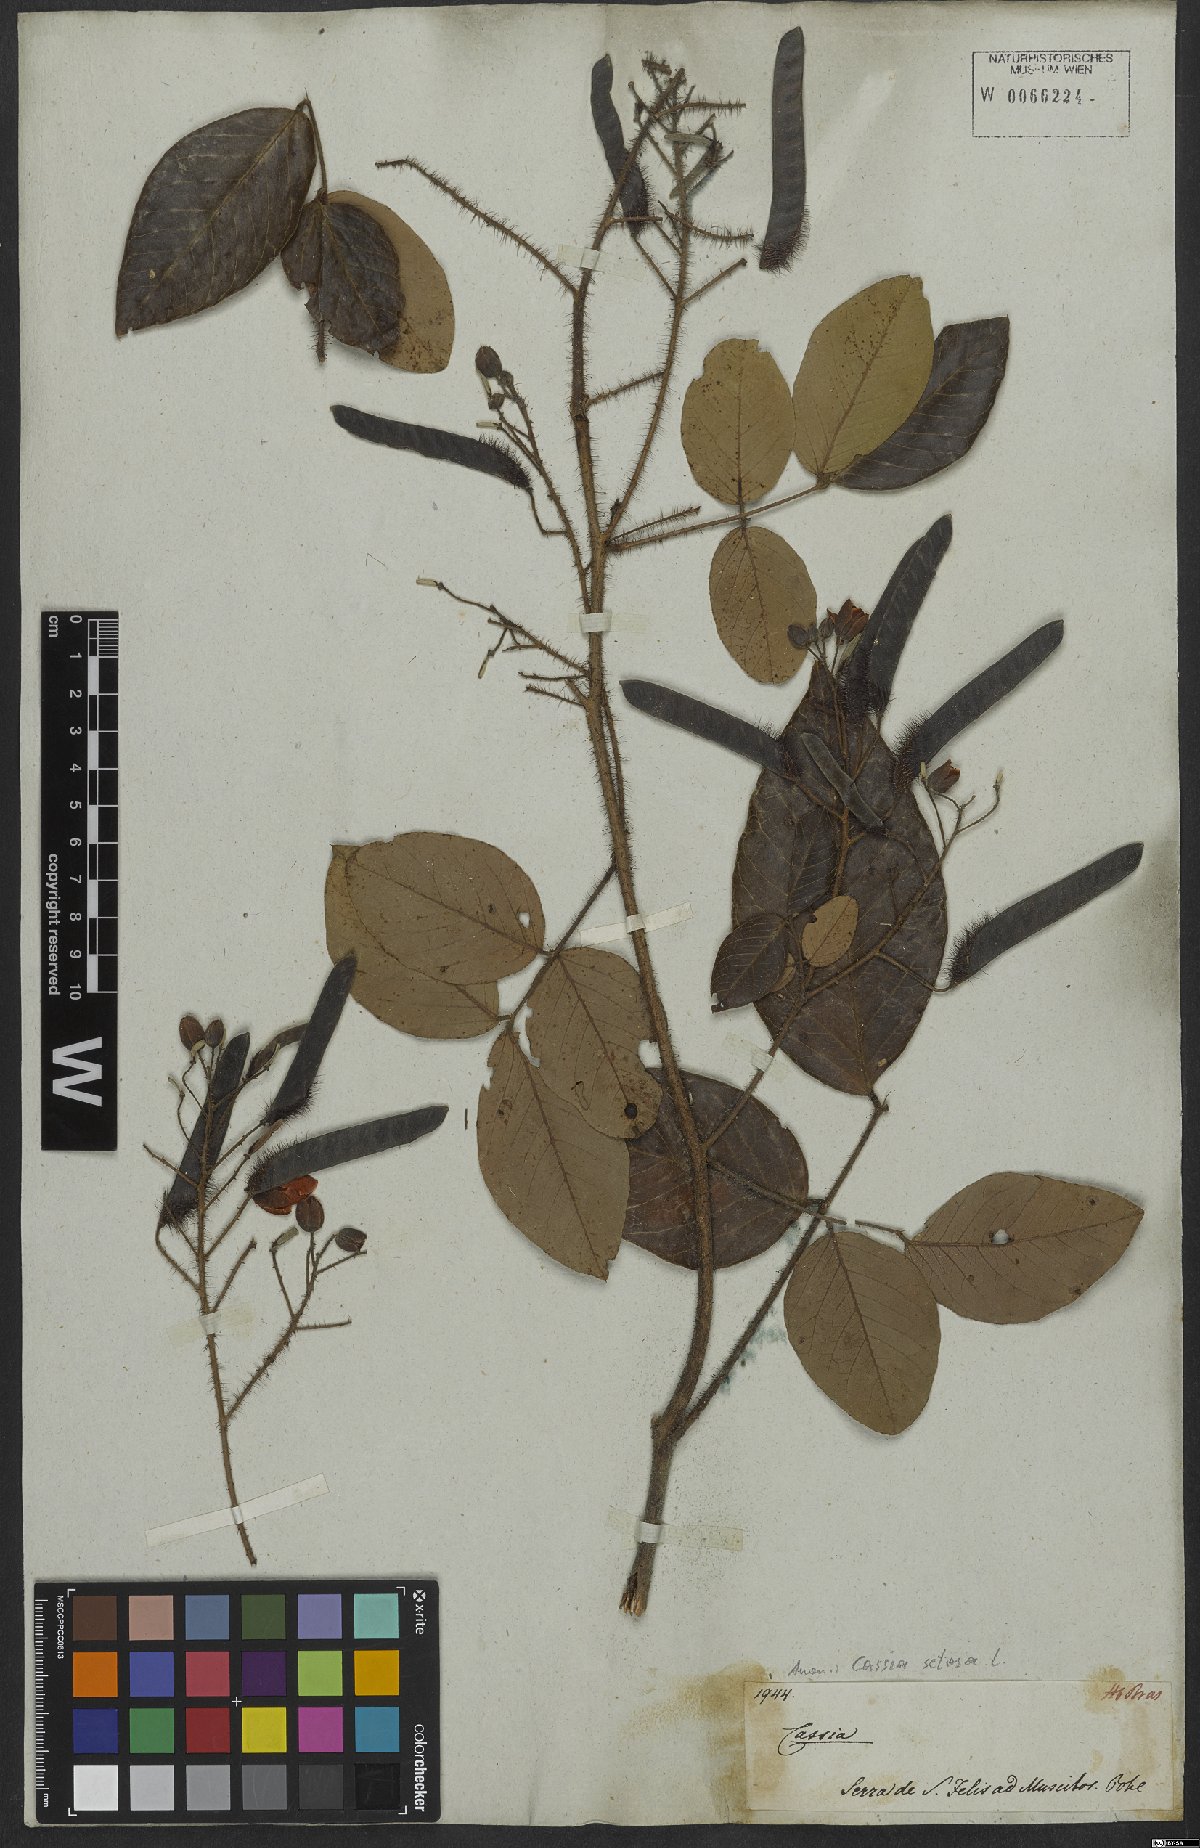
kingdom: Plantae
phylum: Tracheophyta
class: Magnoliopsida
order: Fabales
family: Fabaceae
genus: Chamaecrista
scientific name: Chamaecrista setosa
